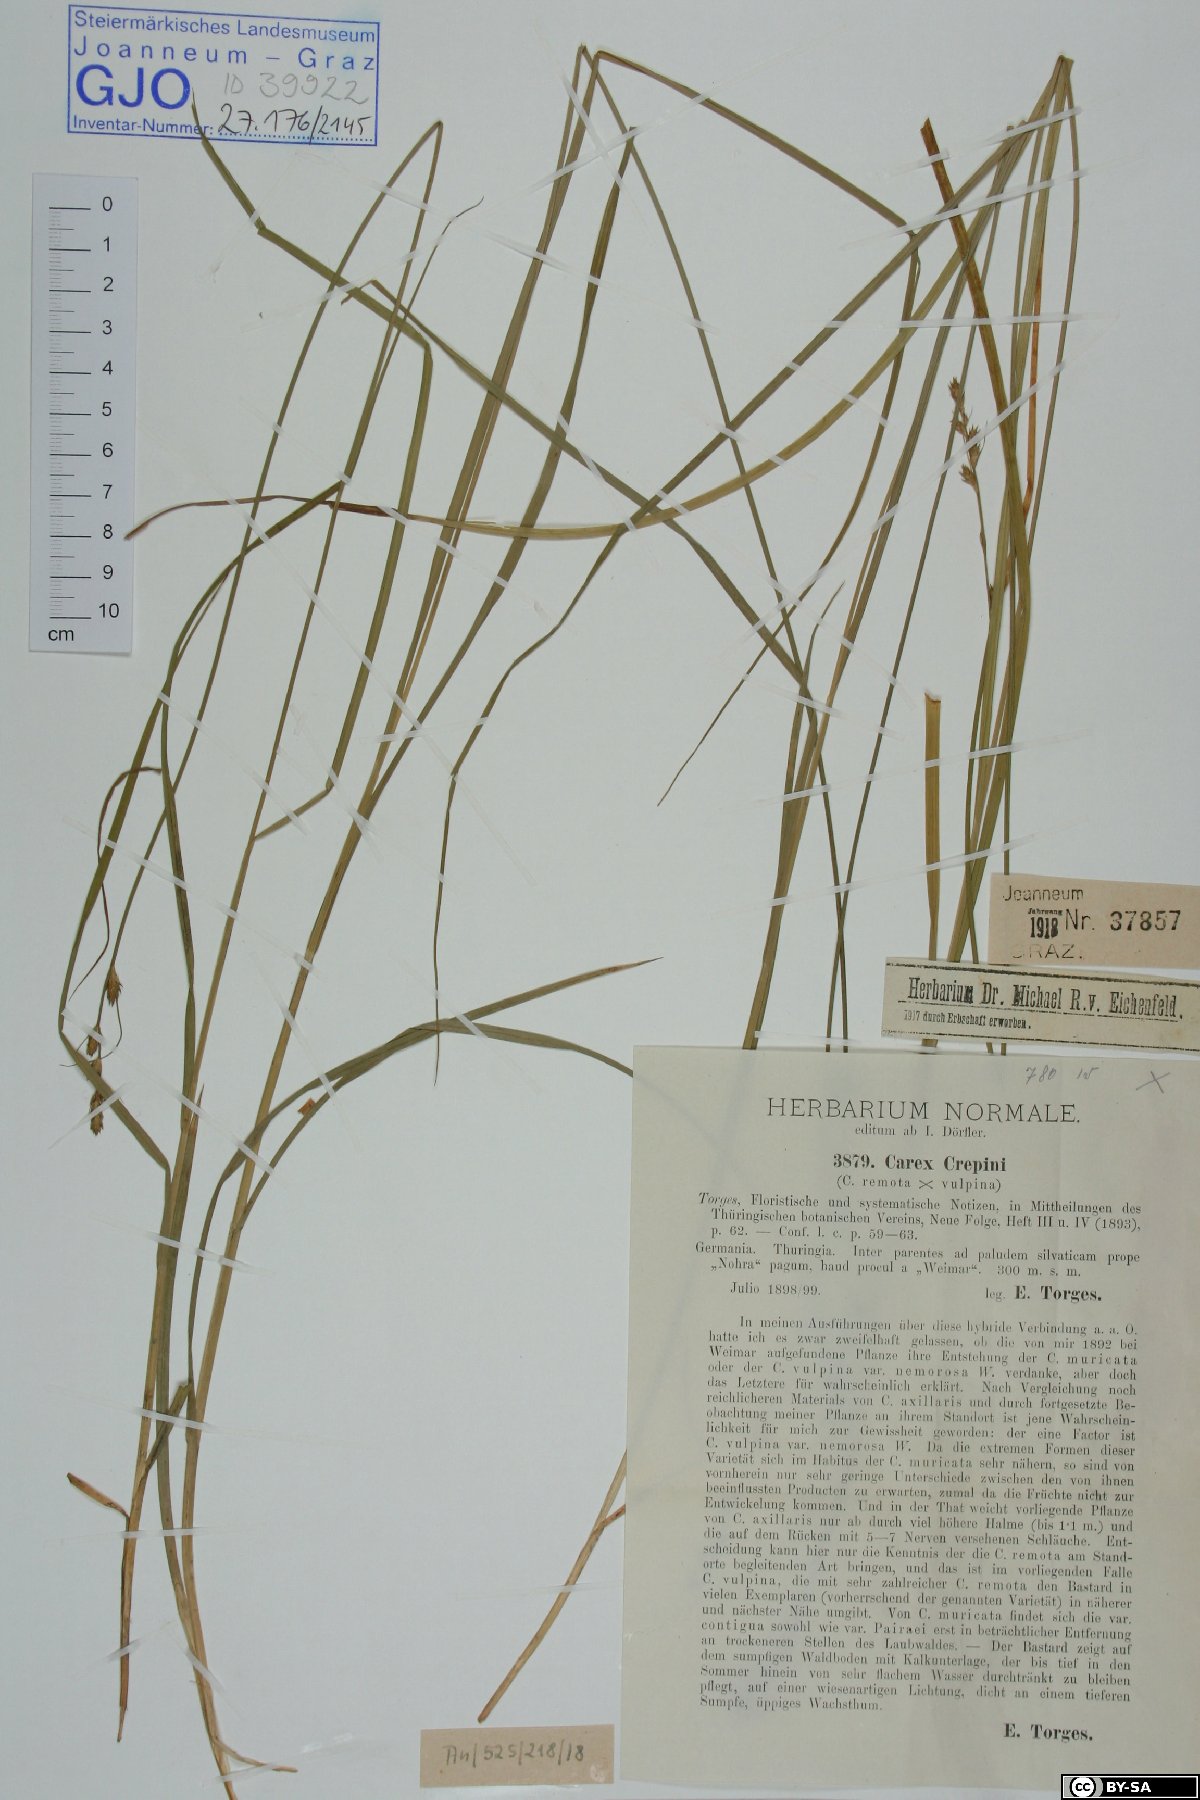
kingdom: Plantae
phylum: Tracheophyta
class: Liliopsida
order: Poales
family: Cyperaceae
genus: Carex
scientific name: Carex crepinii
